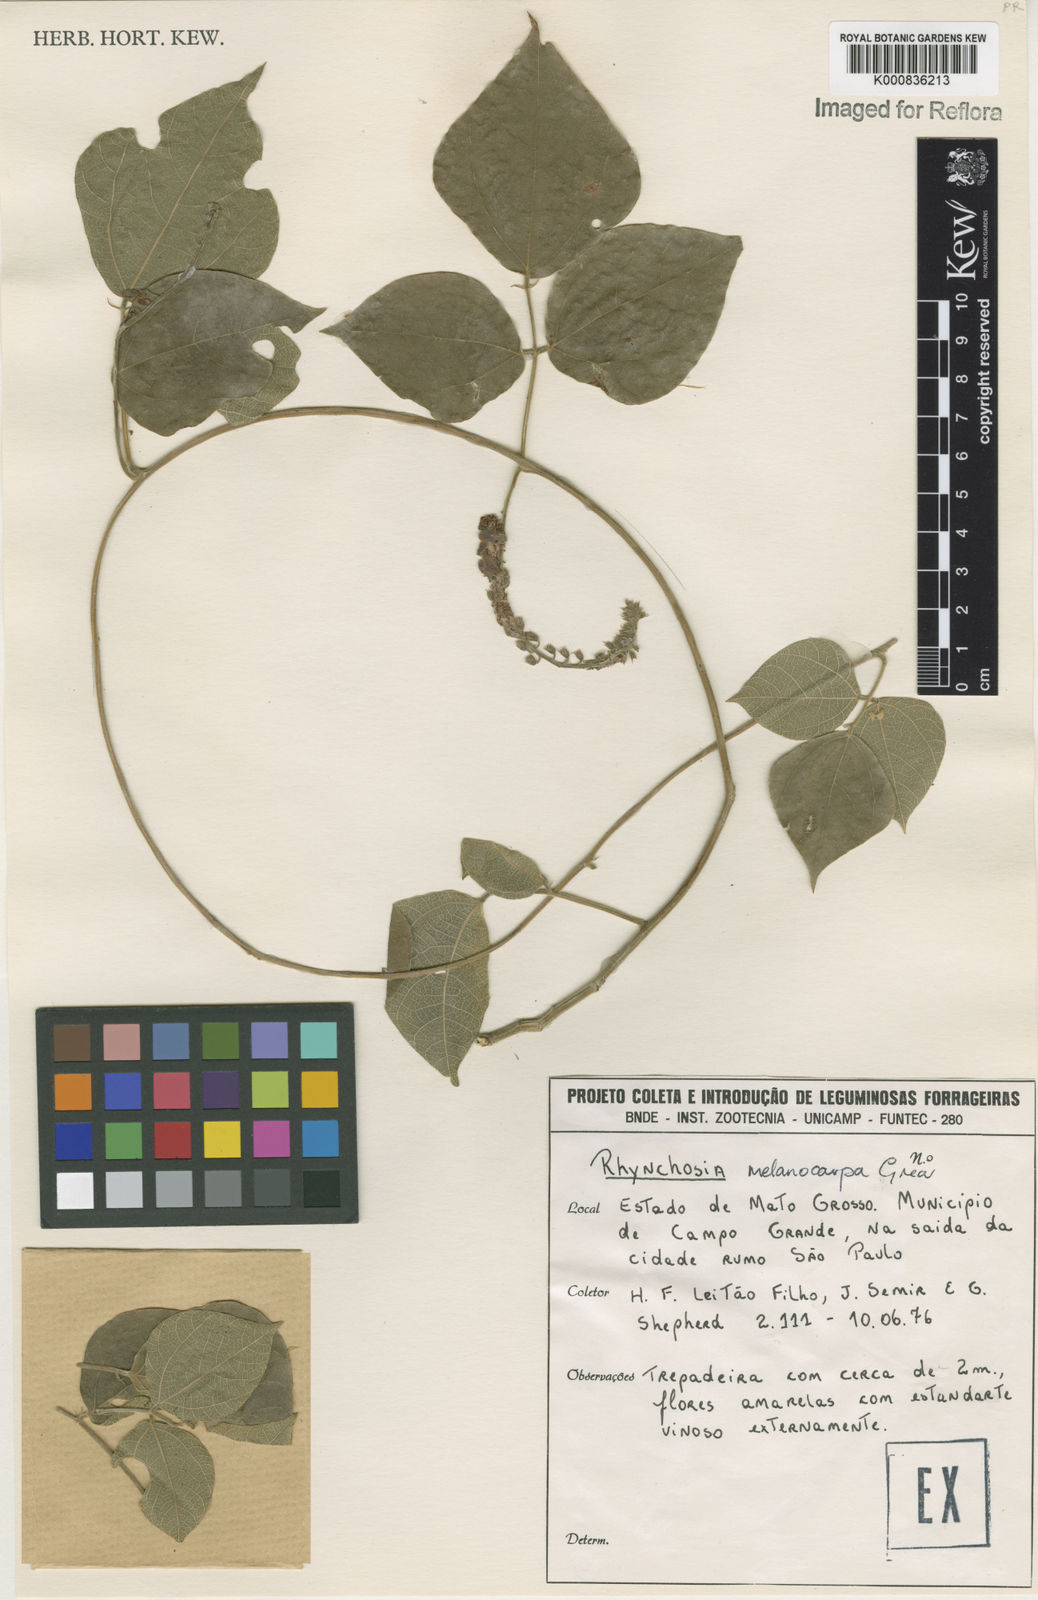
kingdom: Plantae
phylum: Tracheophyta
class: Magnoliopsida
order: Fabales
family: Fabaceae
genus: Rhynchosia
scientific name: Rhynchosia melanocarpa
